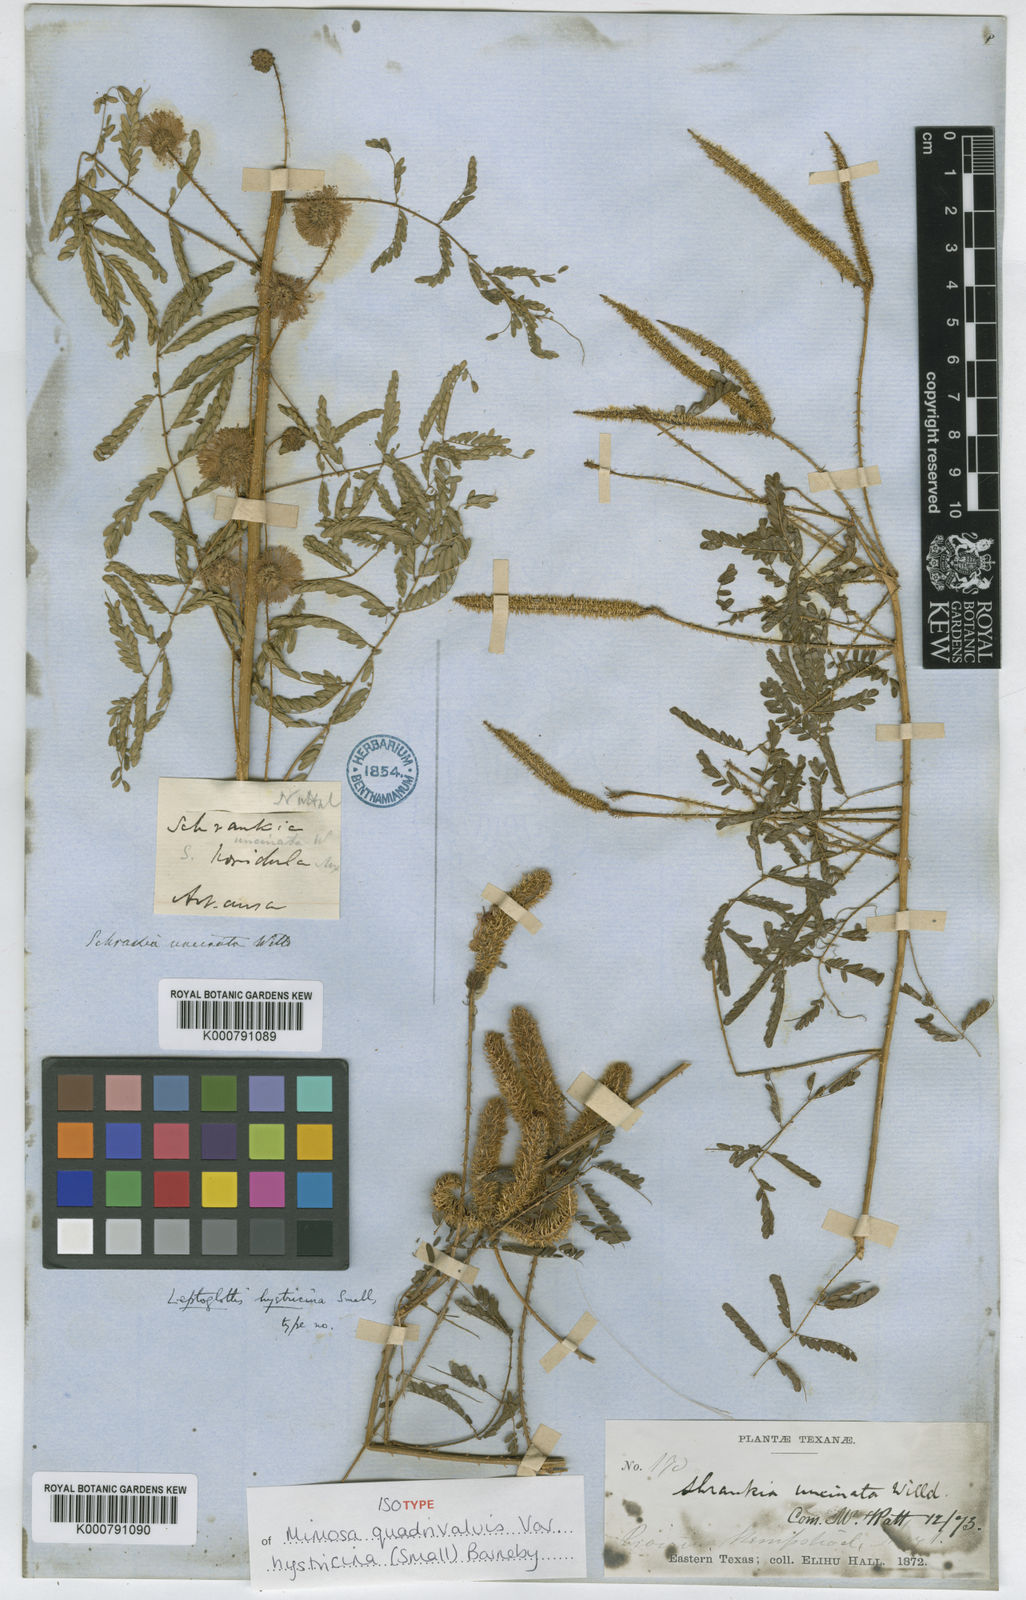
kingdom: Plantae
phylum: Tracheophyta
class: Magnoliopsida
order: Fabales
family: Fabaceae
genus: Mimosa
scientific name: Mimosa hystricina
